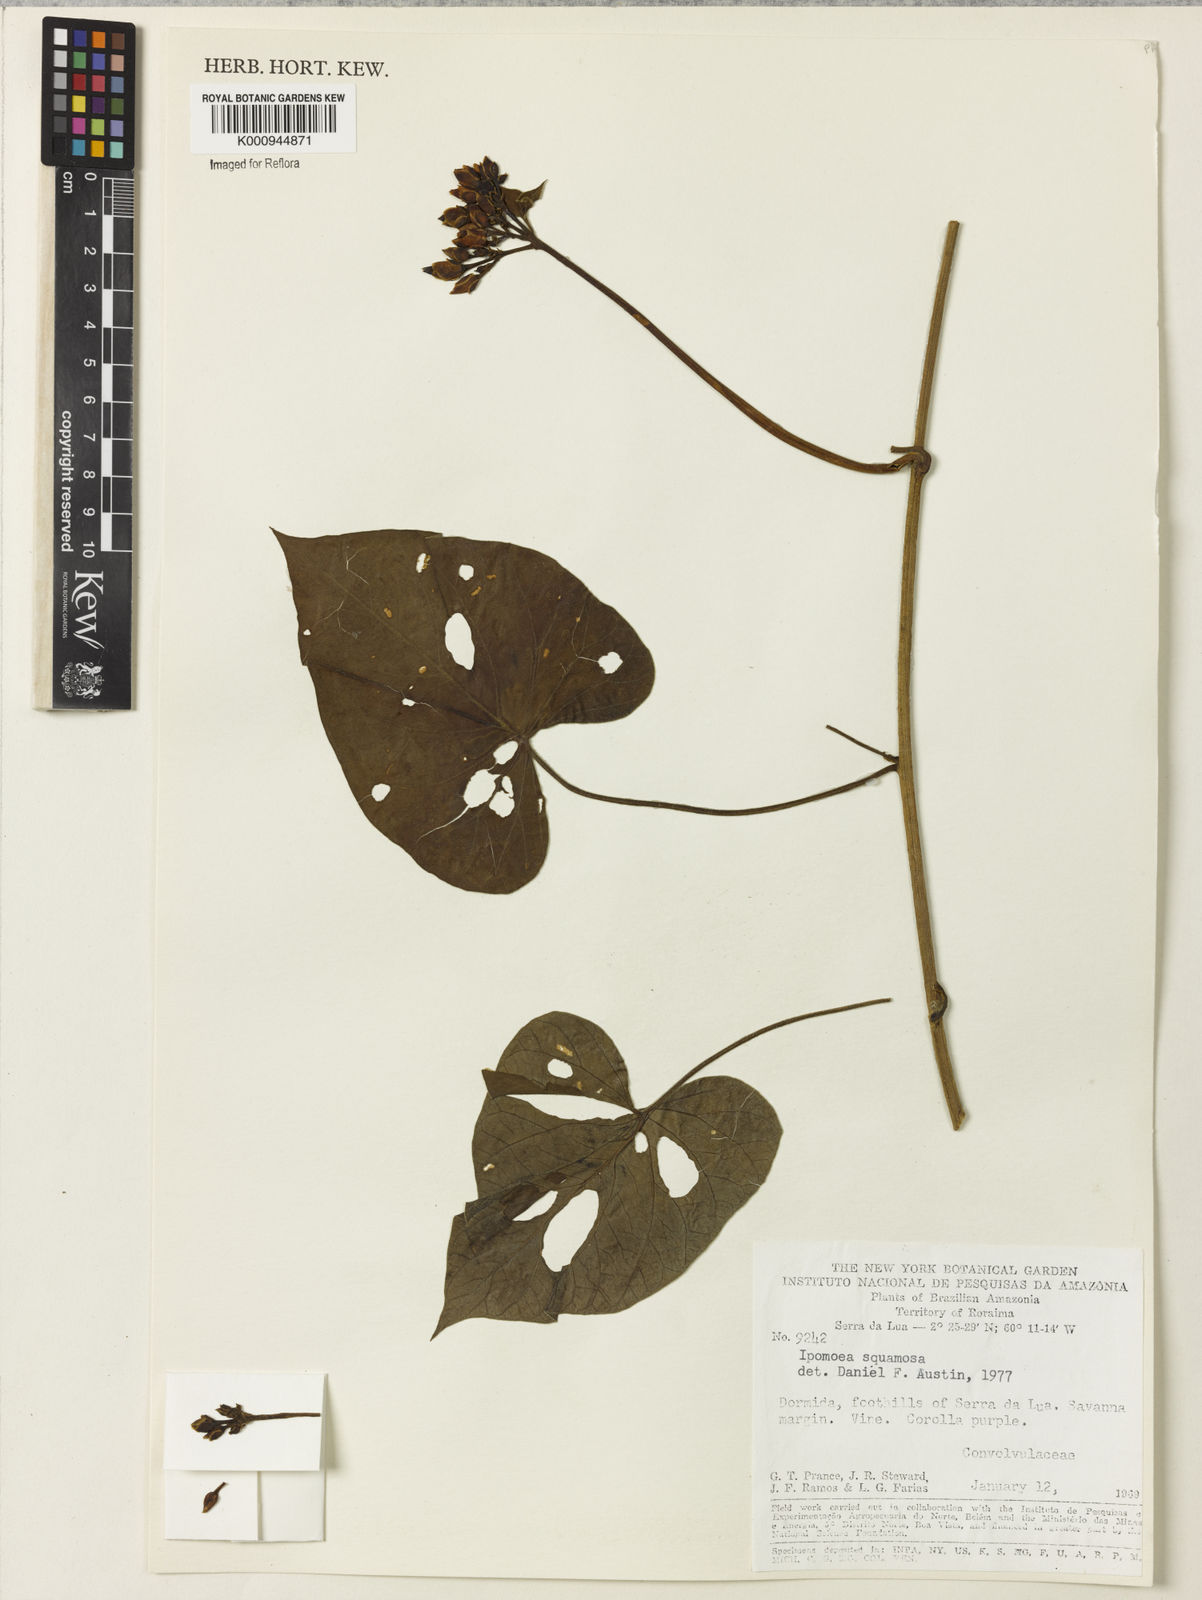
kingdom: Plantae
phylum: Tracheophyta
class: Magnoliopsida
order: Solanales
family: Convolvulaceae
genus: Ipomoea
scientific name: Ipomoea squamosa
